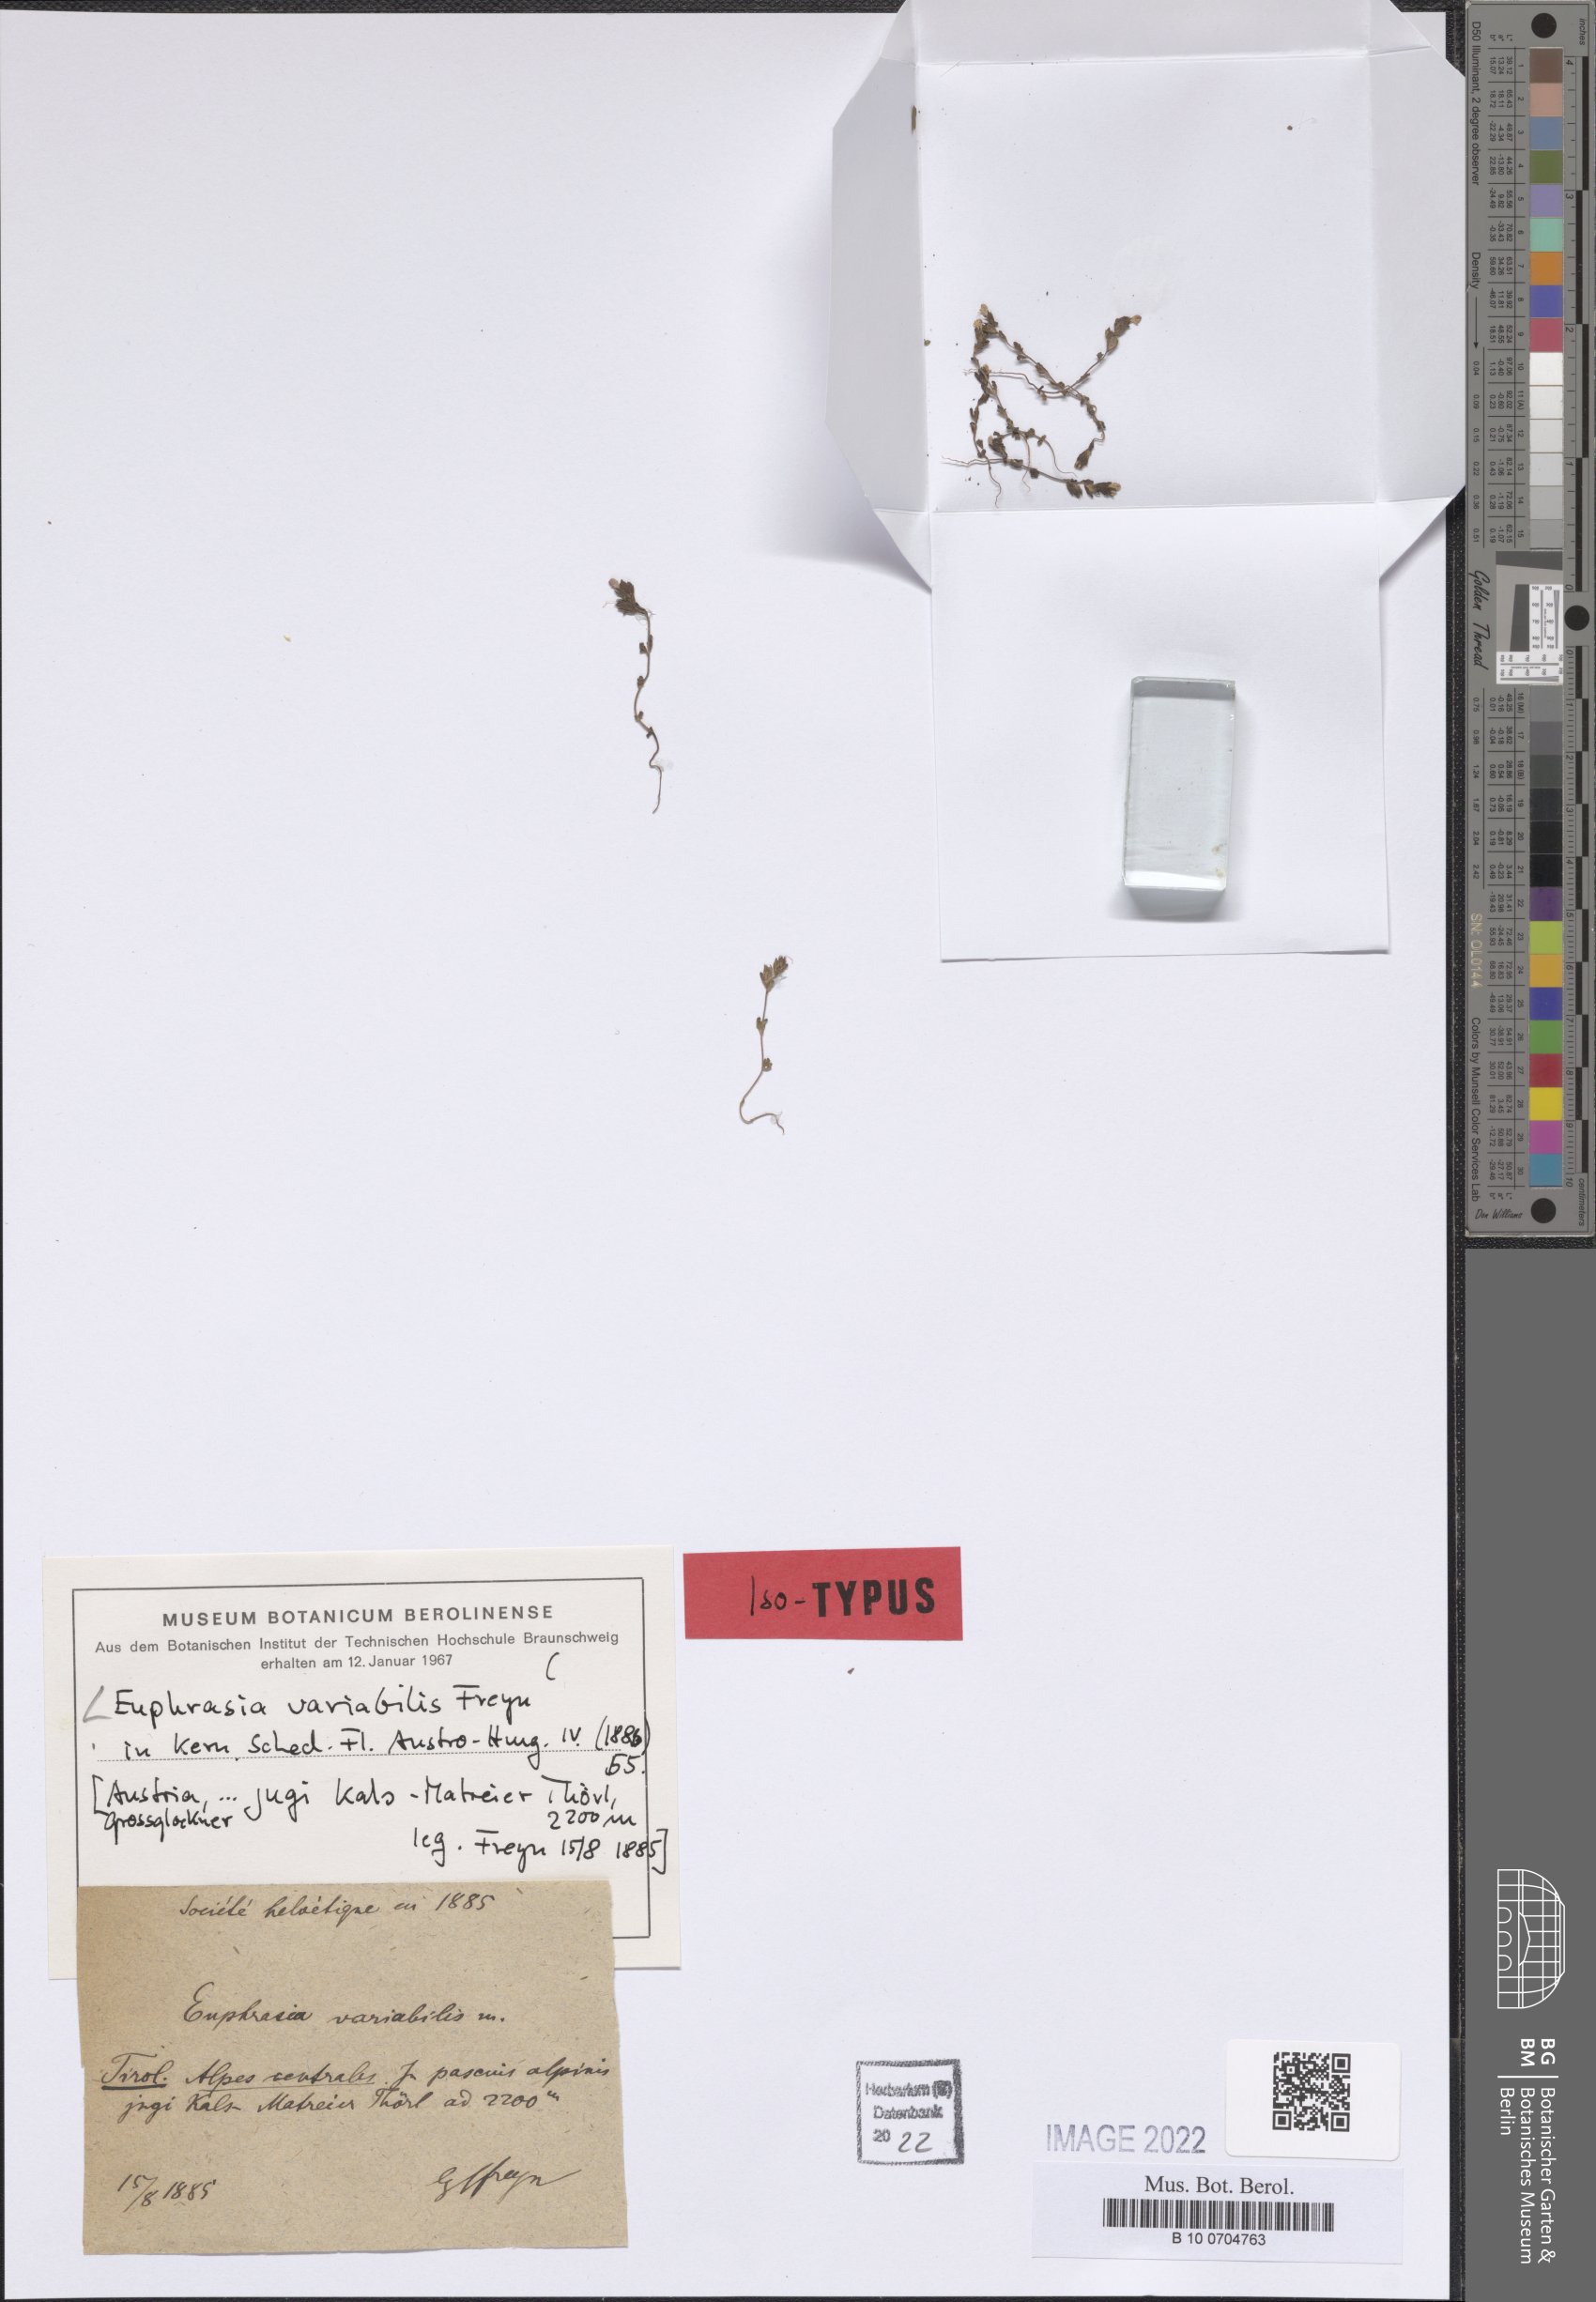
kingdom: Plantae
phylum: Tracheophyta
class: Magnoliopsida
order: Lamiales
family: Orobanchaceae
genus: Euphrasia
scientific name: Euphrasia variabilis
